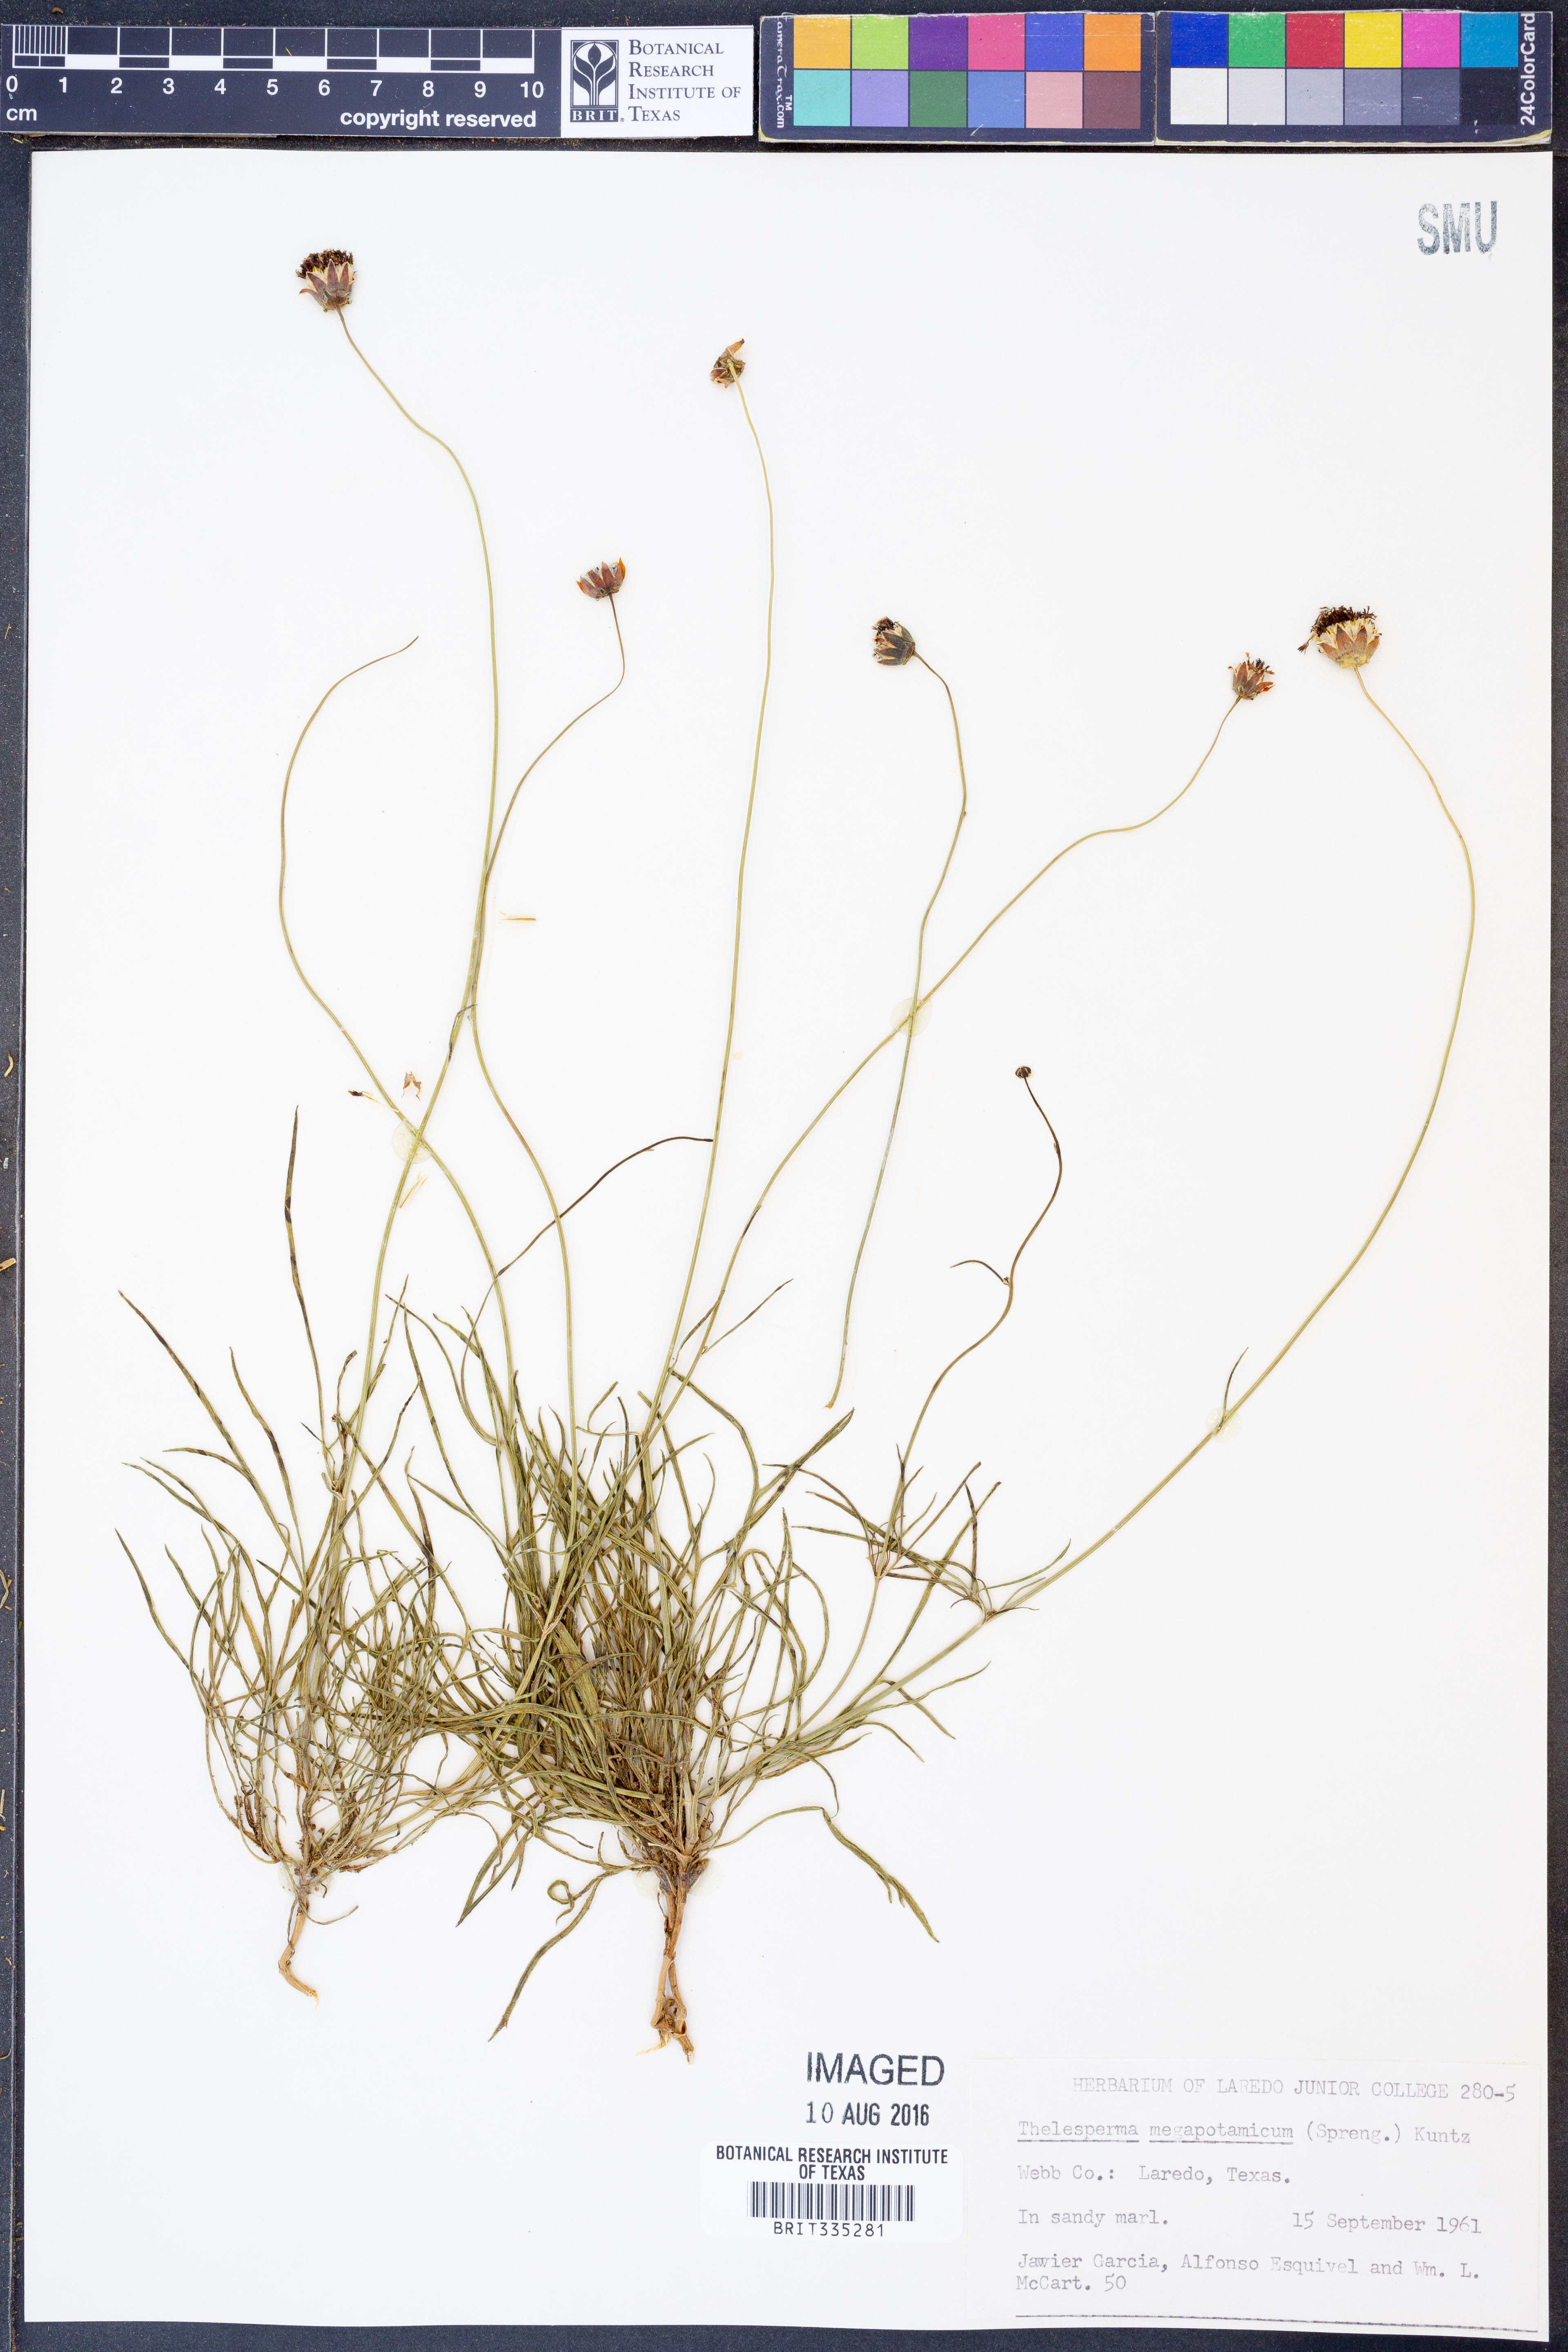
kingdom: Plantae
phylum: Tracheophyta
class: Magnoliopsida
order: Asterales
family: Asteraceae
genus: Thelesperma
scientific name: Thelesperma megapotamicum
